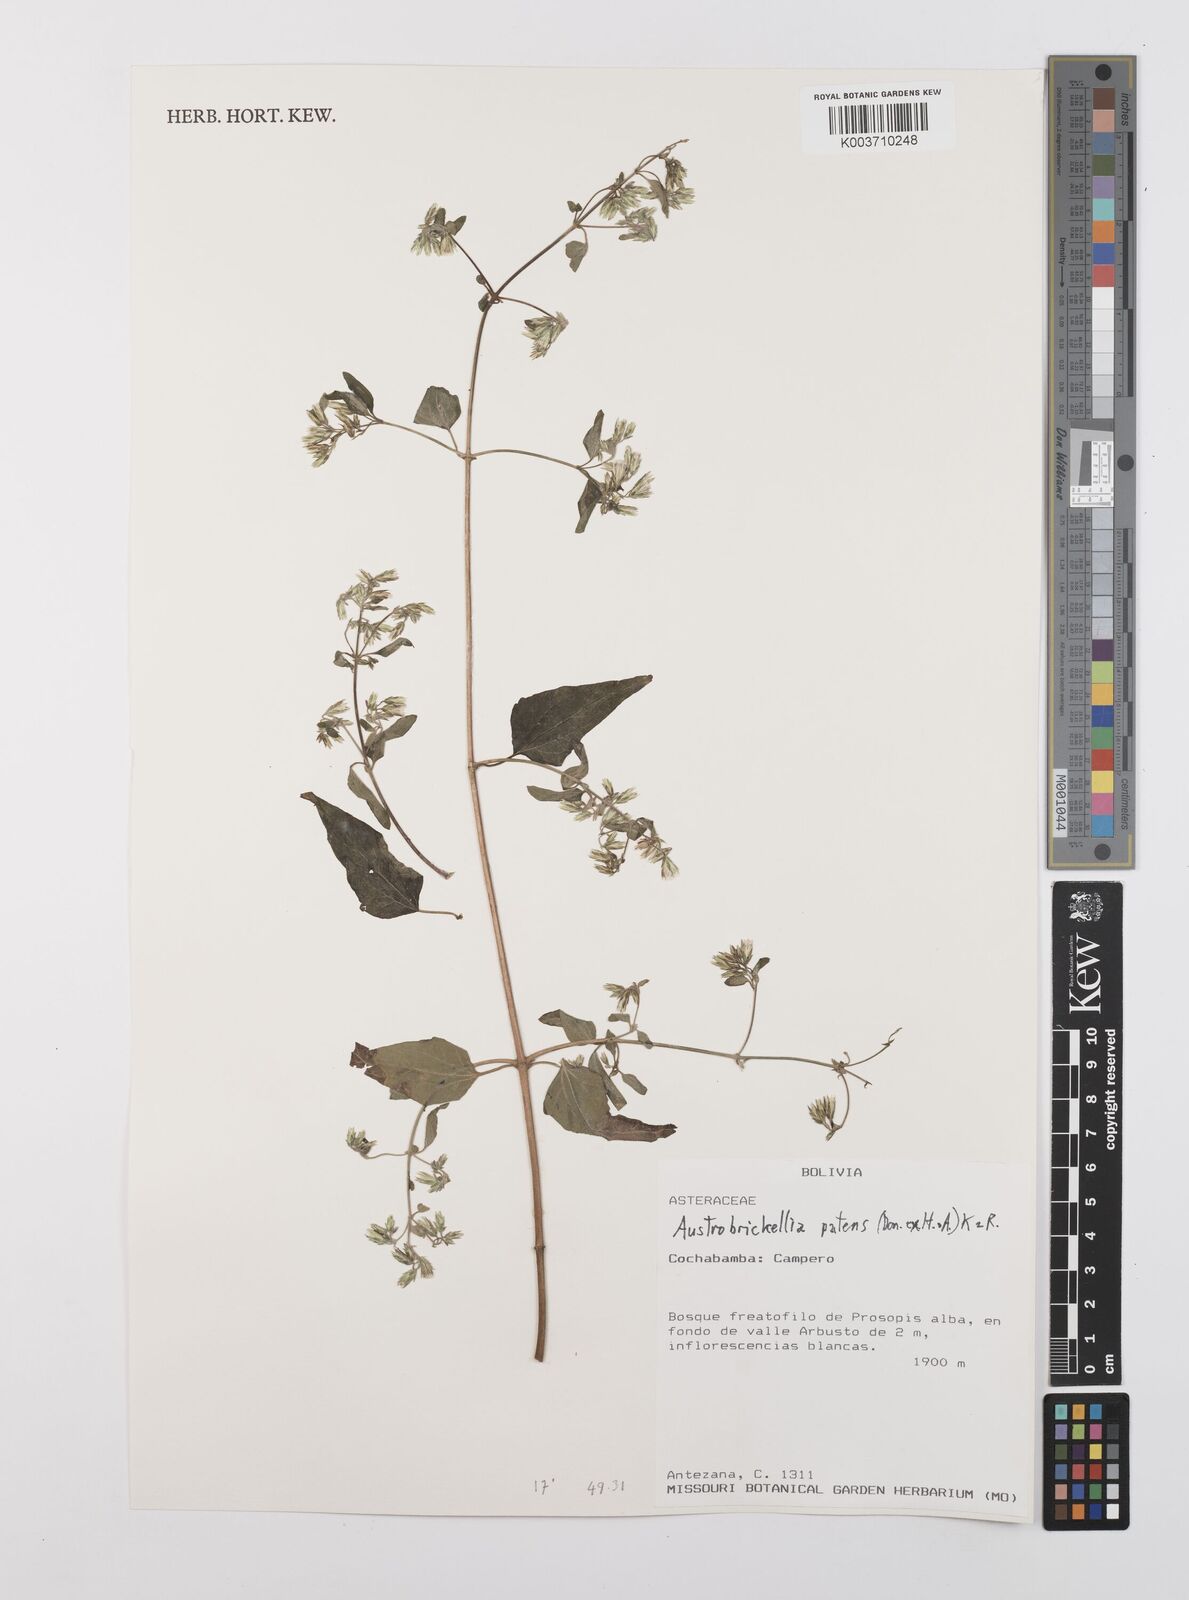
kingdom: Plantae
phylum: Tracheophyta
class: Magnoliopsida
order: Asterales
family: Asteraceae
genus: Austrobrickellia
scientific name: Austrobrickellia patens
